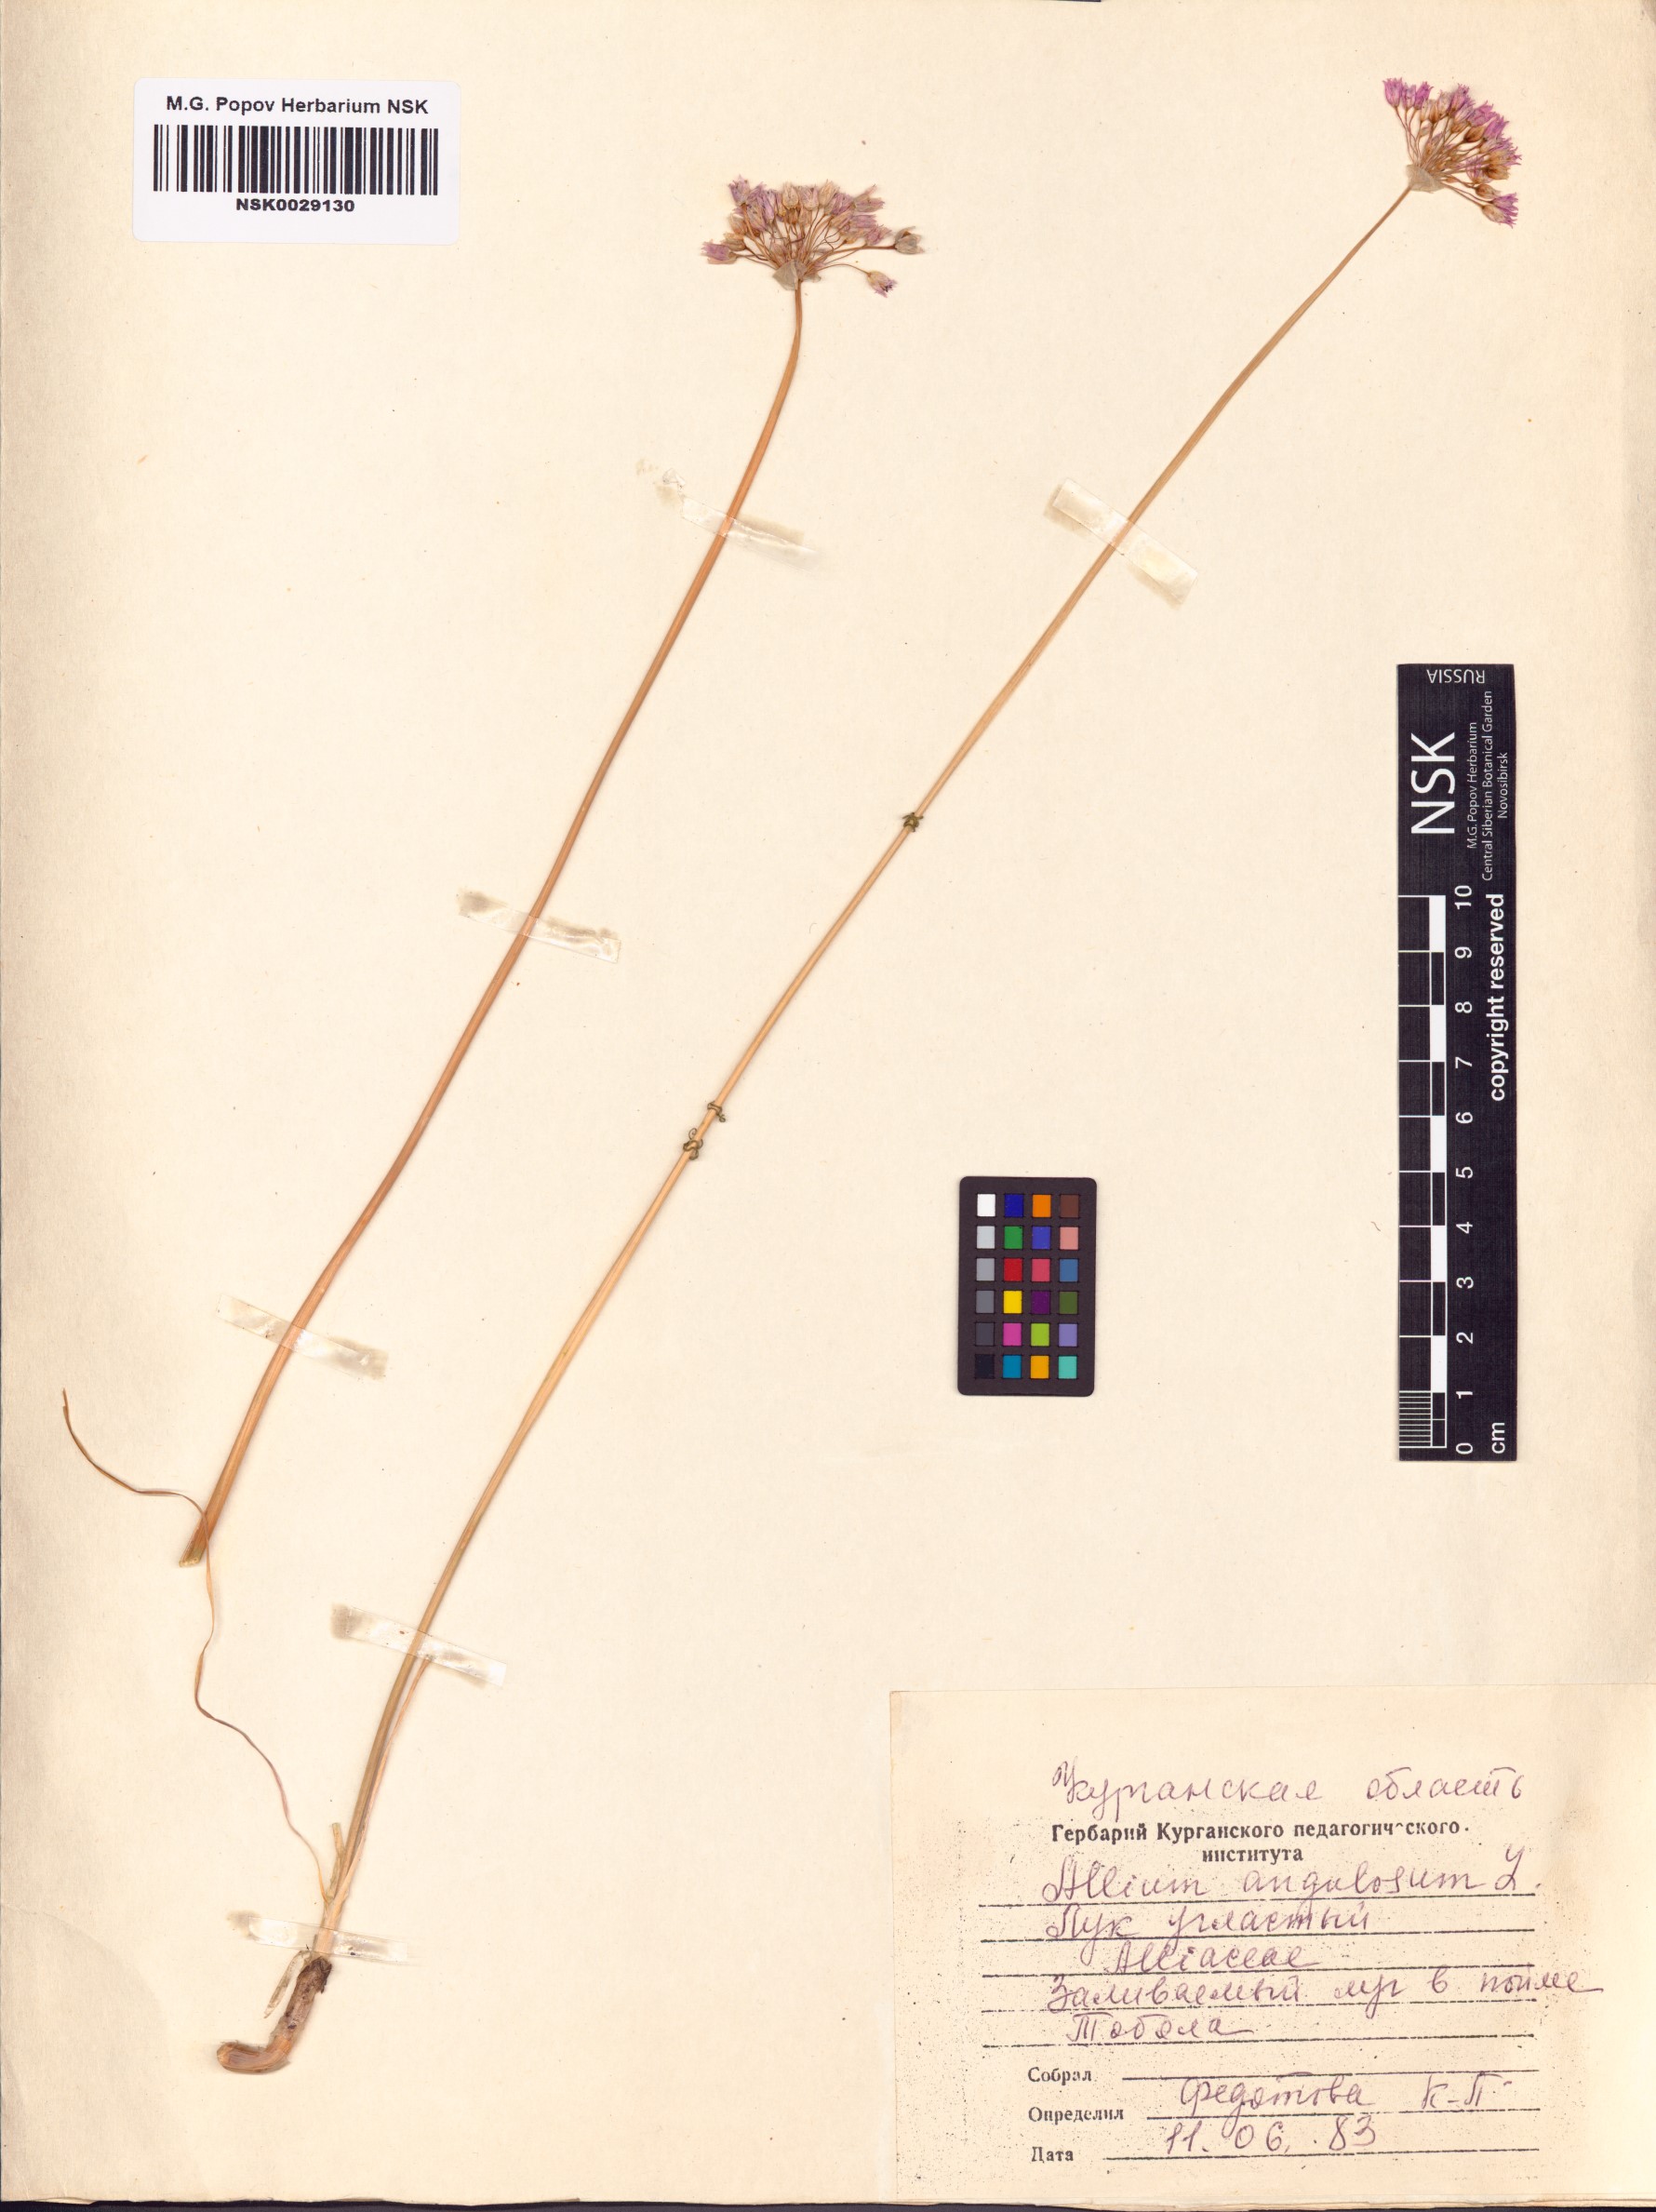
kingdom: Plantae
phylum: Tracheophyta
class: Liliopsida
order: Asparagales
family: Amaryllidaceae
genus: Allium
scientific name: Allium angulosum
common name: Mouse garlic
